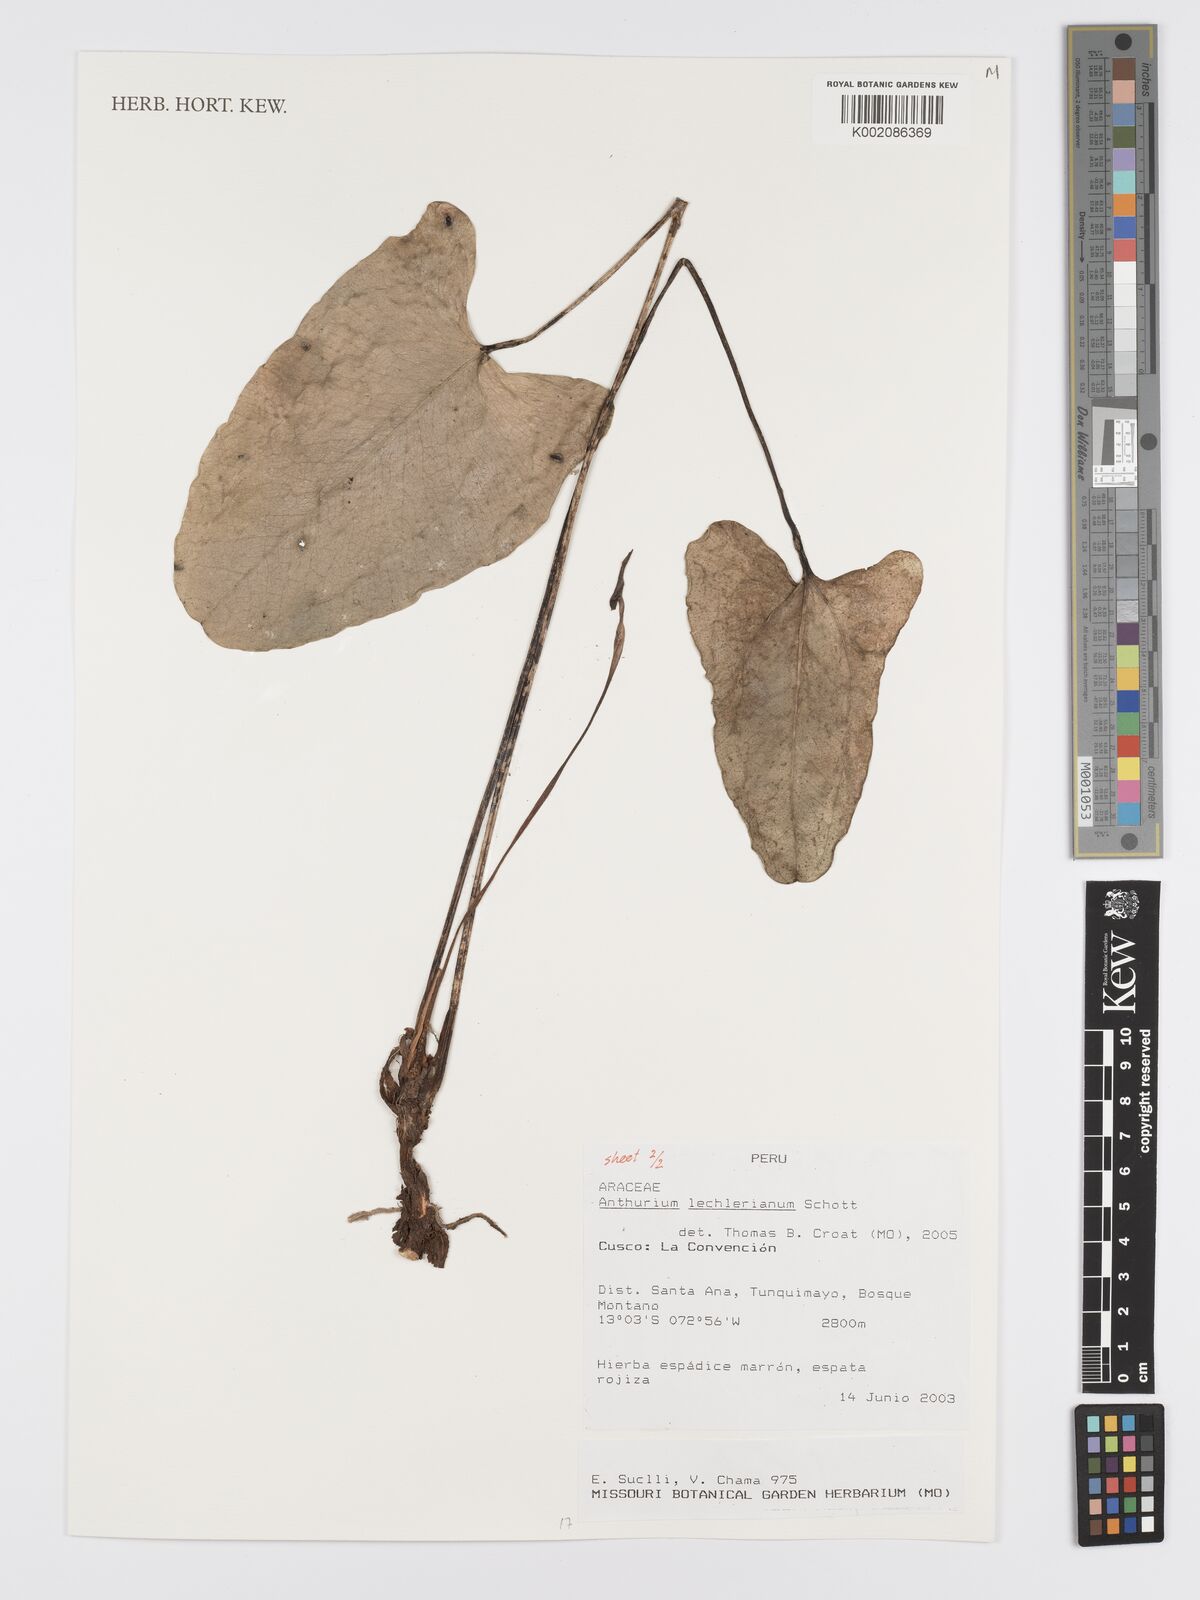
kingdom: Plantae
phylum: Tracheophyta
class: Liliopsida
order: Alismatales
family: Araceae
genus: Anthurium
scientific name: Anthurium lechlerianum
